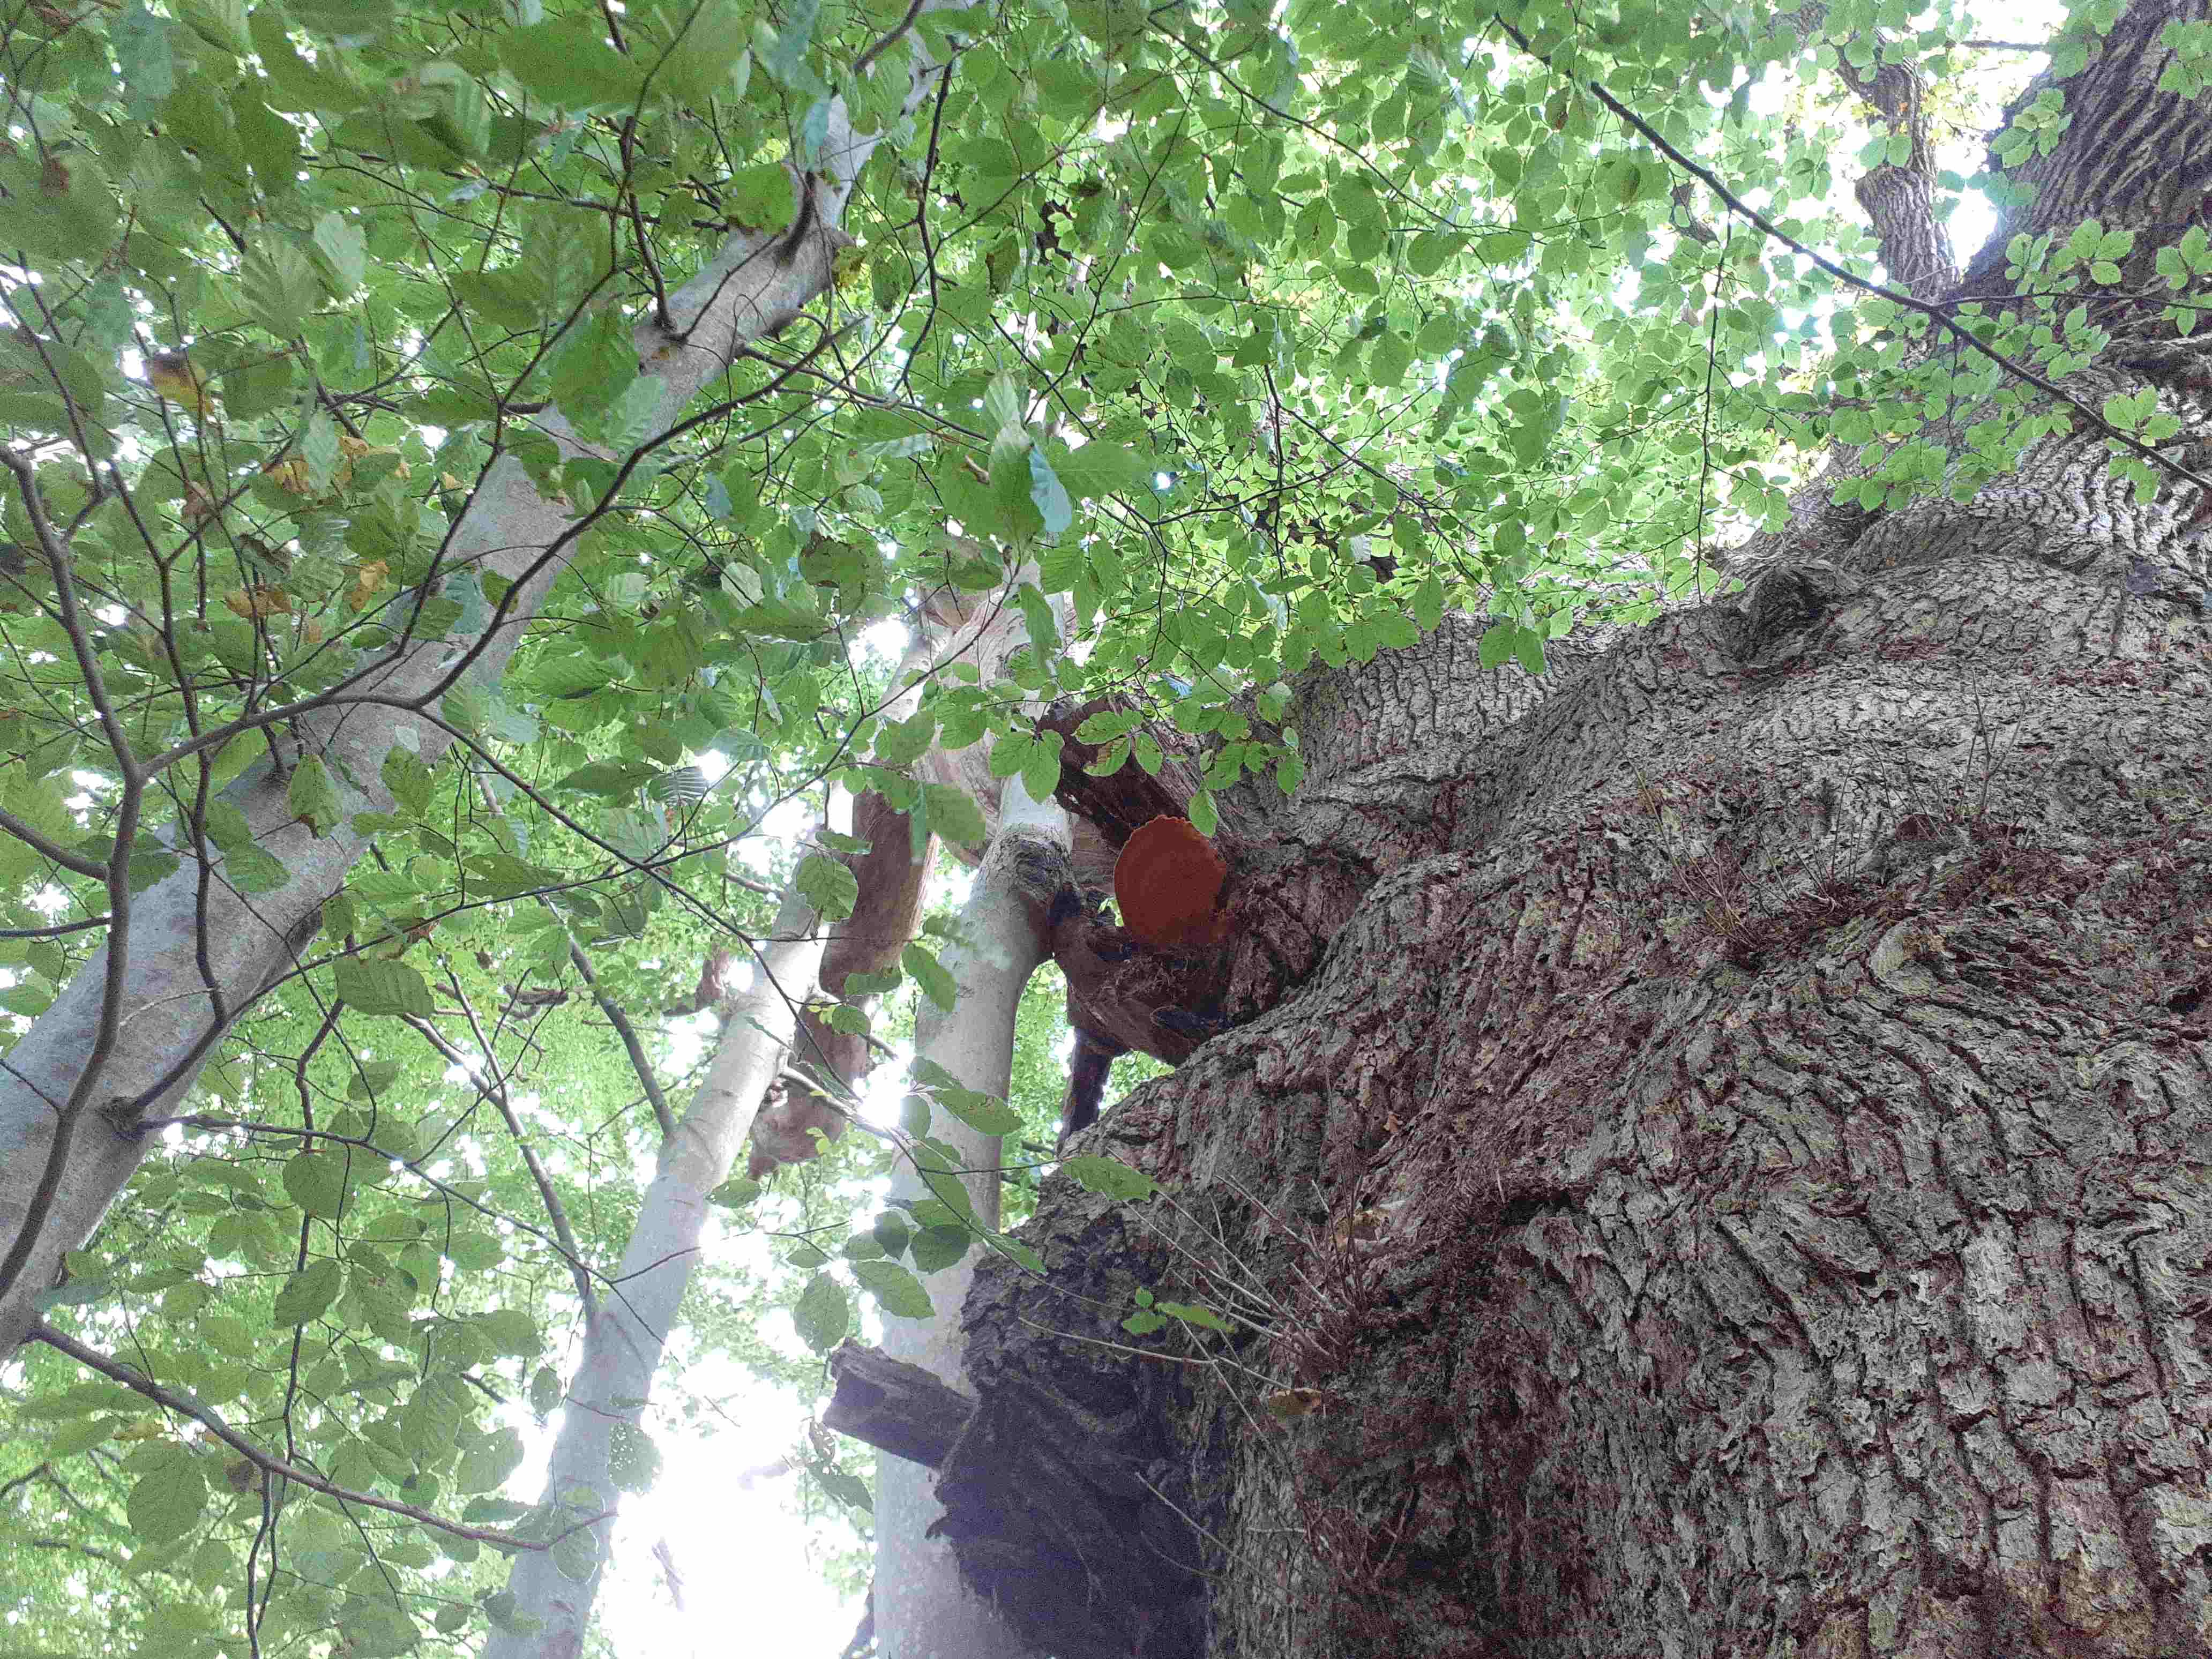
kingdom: Fungi
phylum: Basidiomycota
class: Agaricomycetes
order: Polyporales
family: Phanerochaetaceae
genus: Hapalopilus
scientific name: Hapalopilus croceus
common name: safrangul pragtporesvamp
